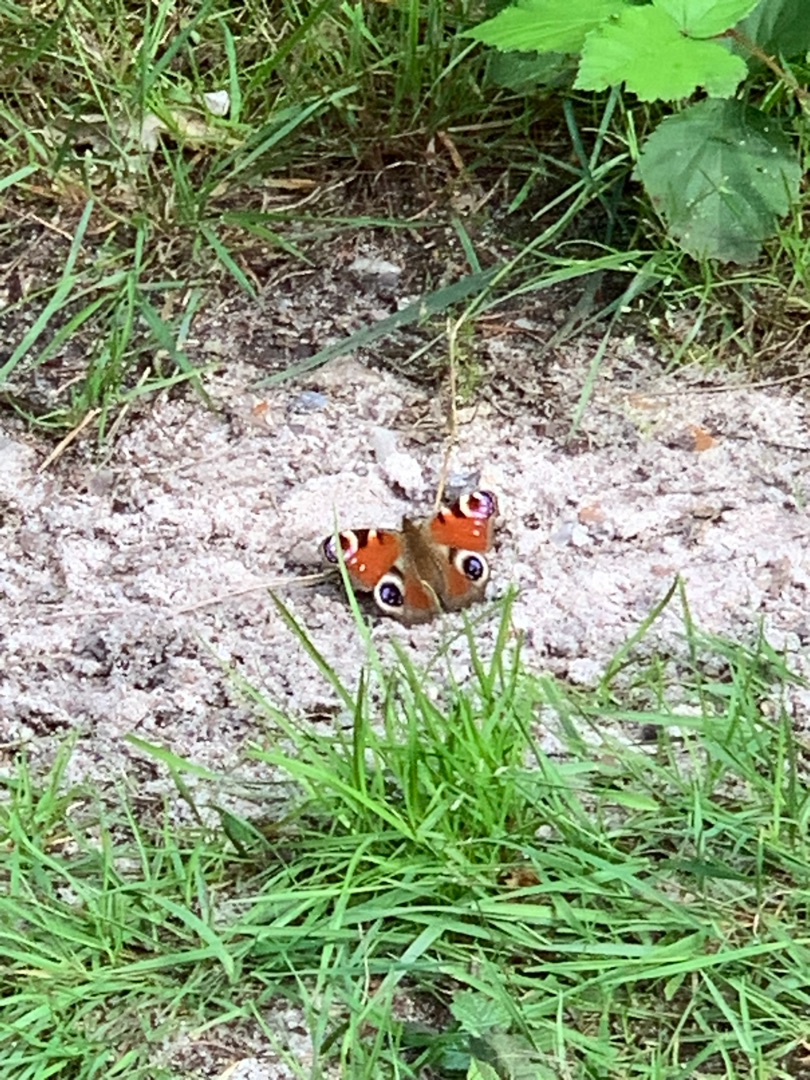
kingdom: Animalia
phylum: Arthropoda
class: Insecta
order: Lepidoptera
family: Nymphalidae
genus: Aglais
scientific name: Aglais io
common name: Dagpåfugleøje
